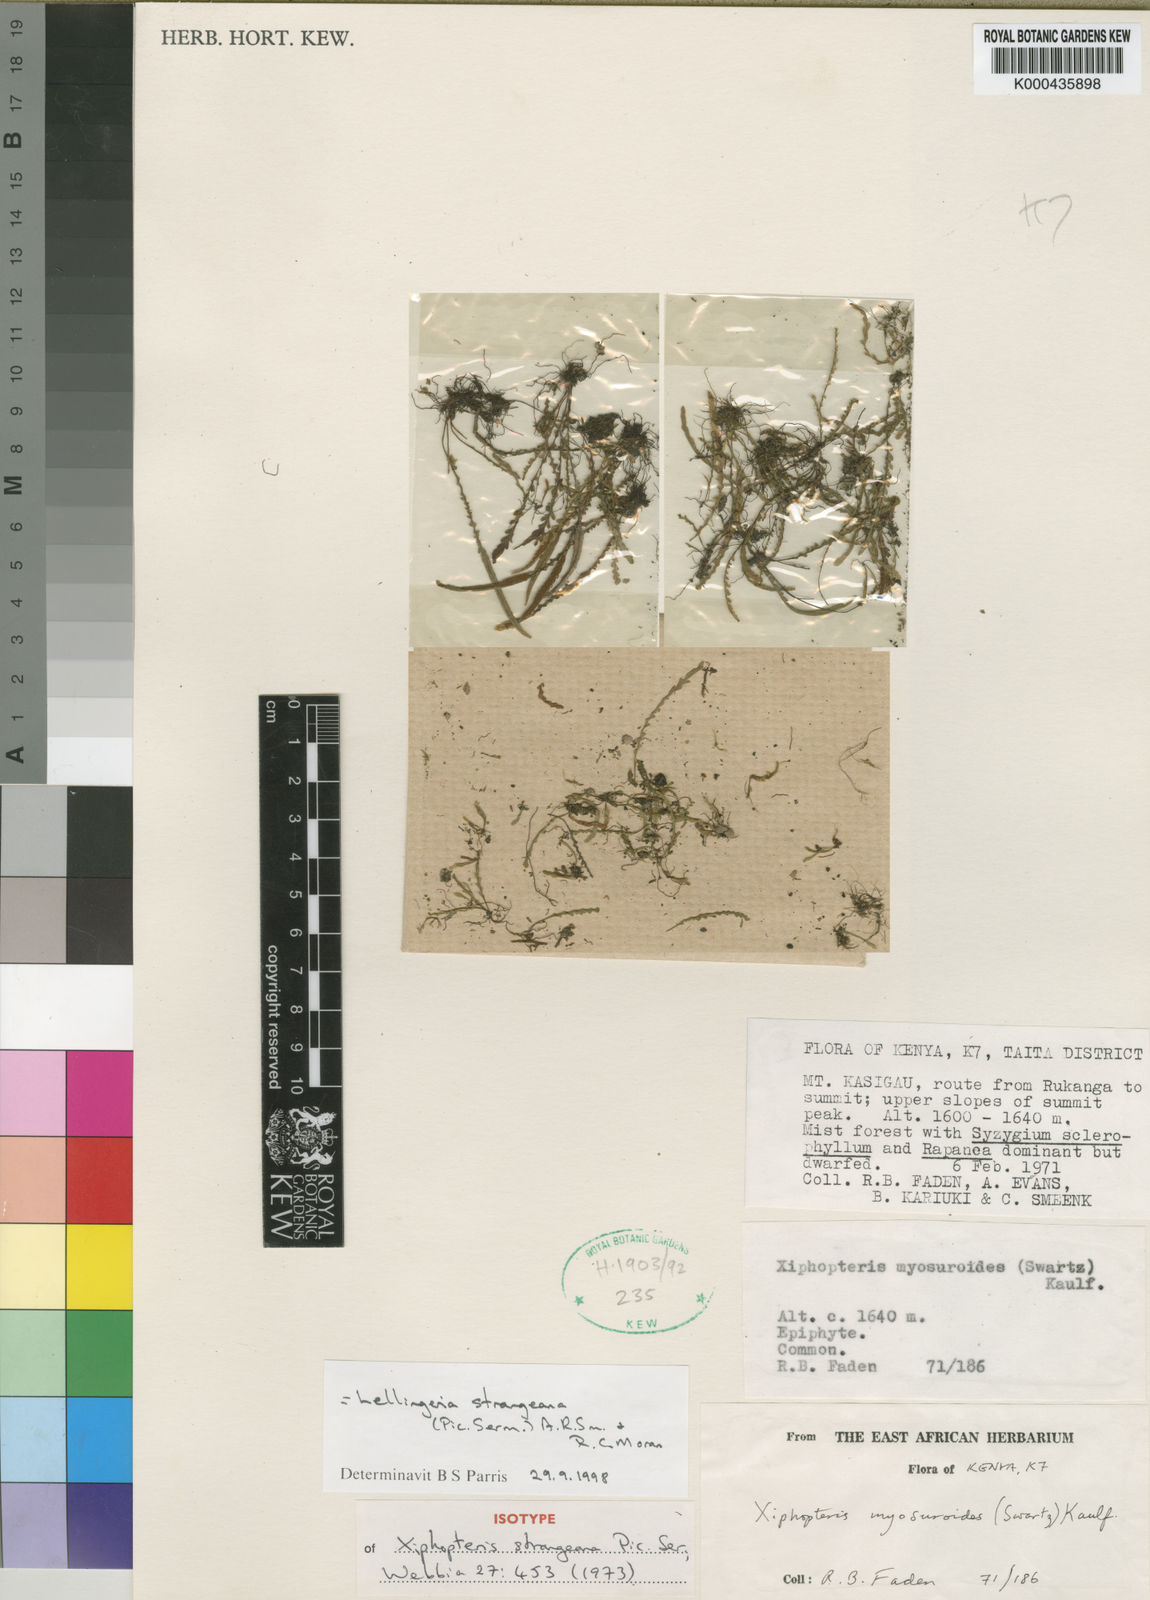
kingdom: Plantae
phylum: Tracheophyta
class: Polypodiopsida
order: Polypodiales
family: Polypodiaceae
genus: Stenogrammitis
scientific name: Stenogrammitis strangeana
